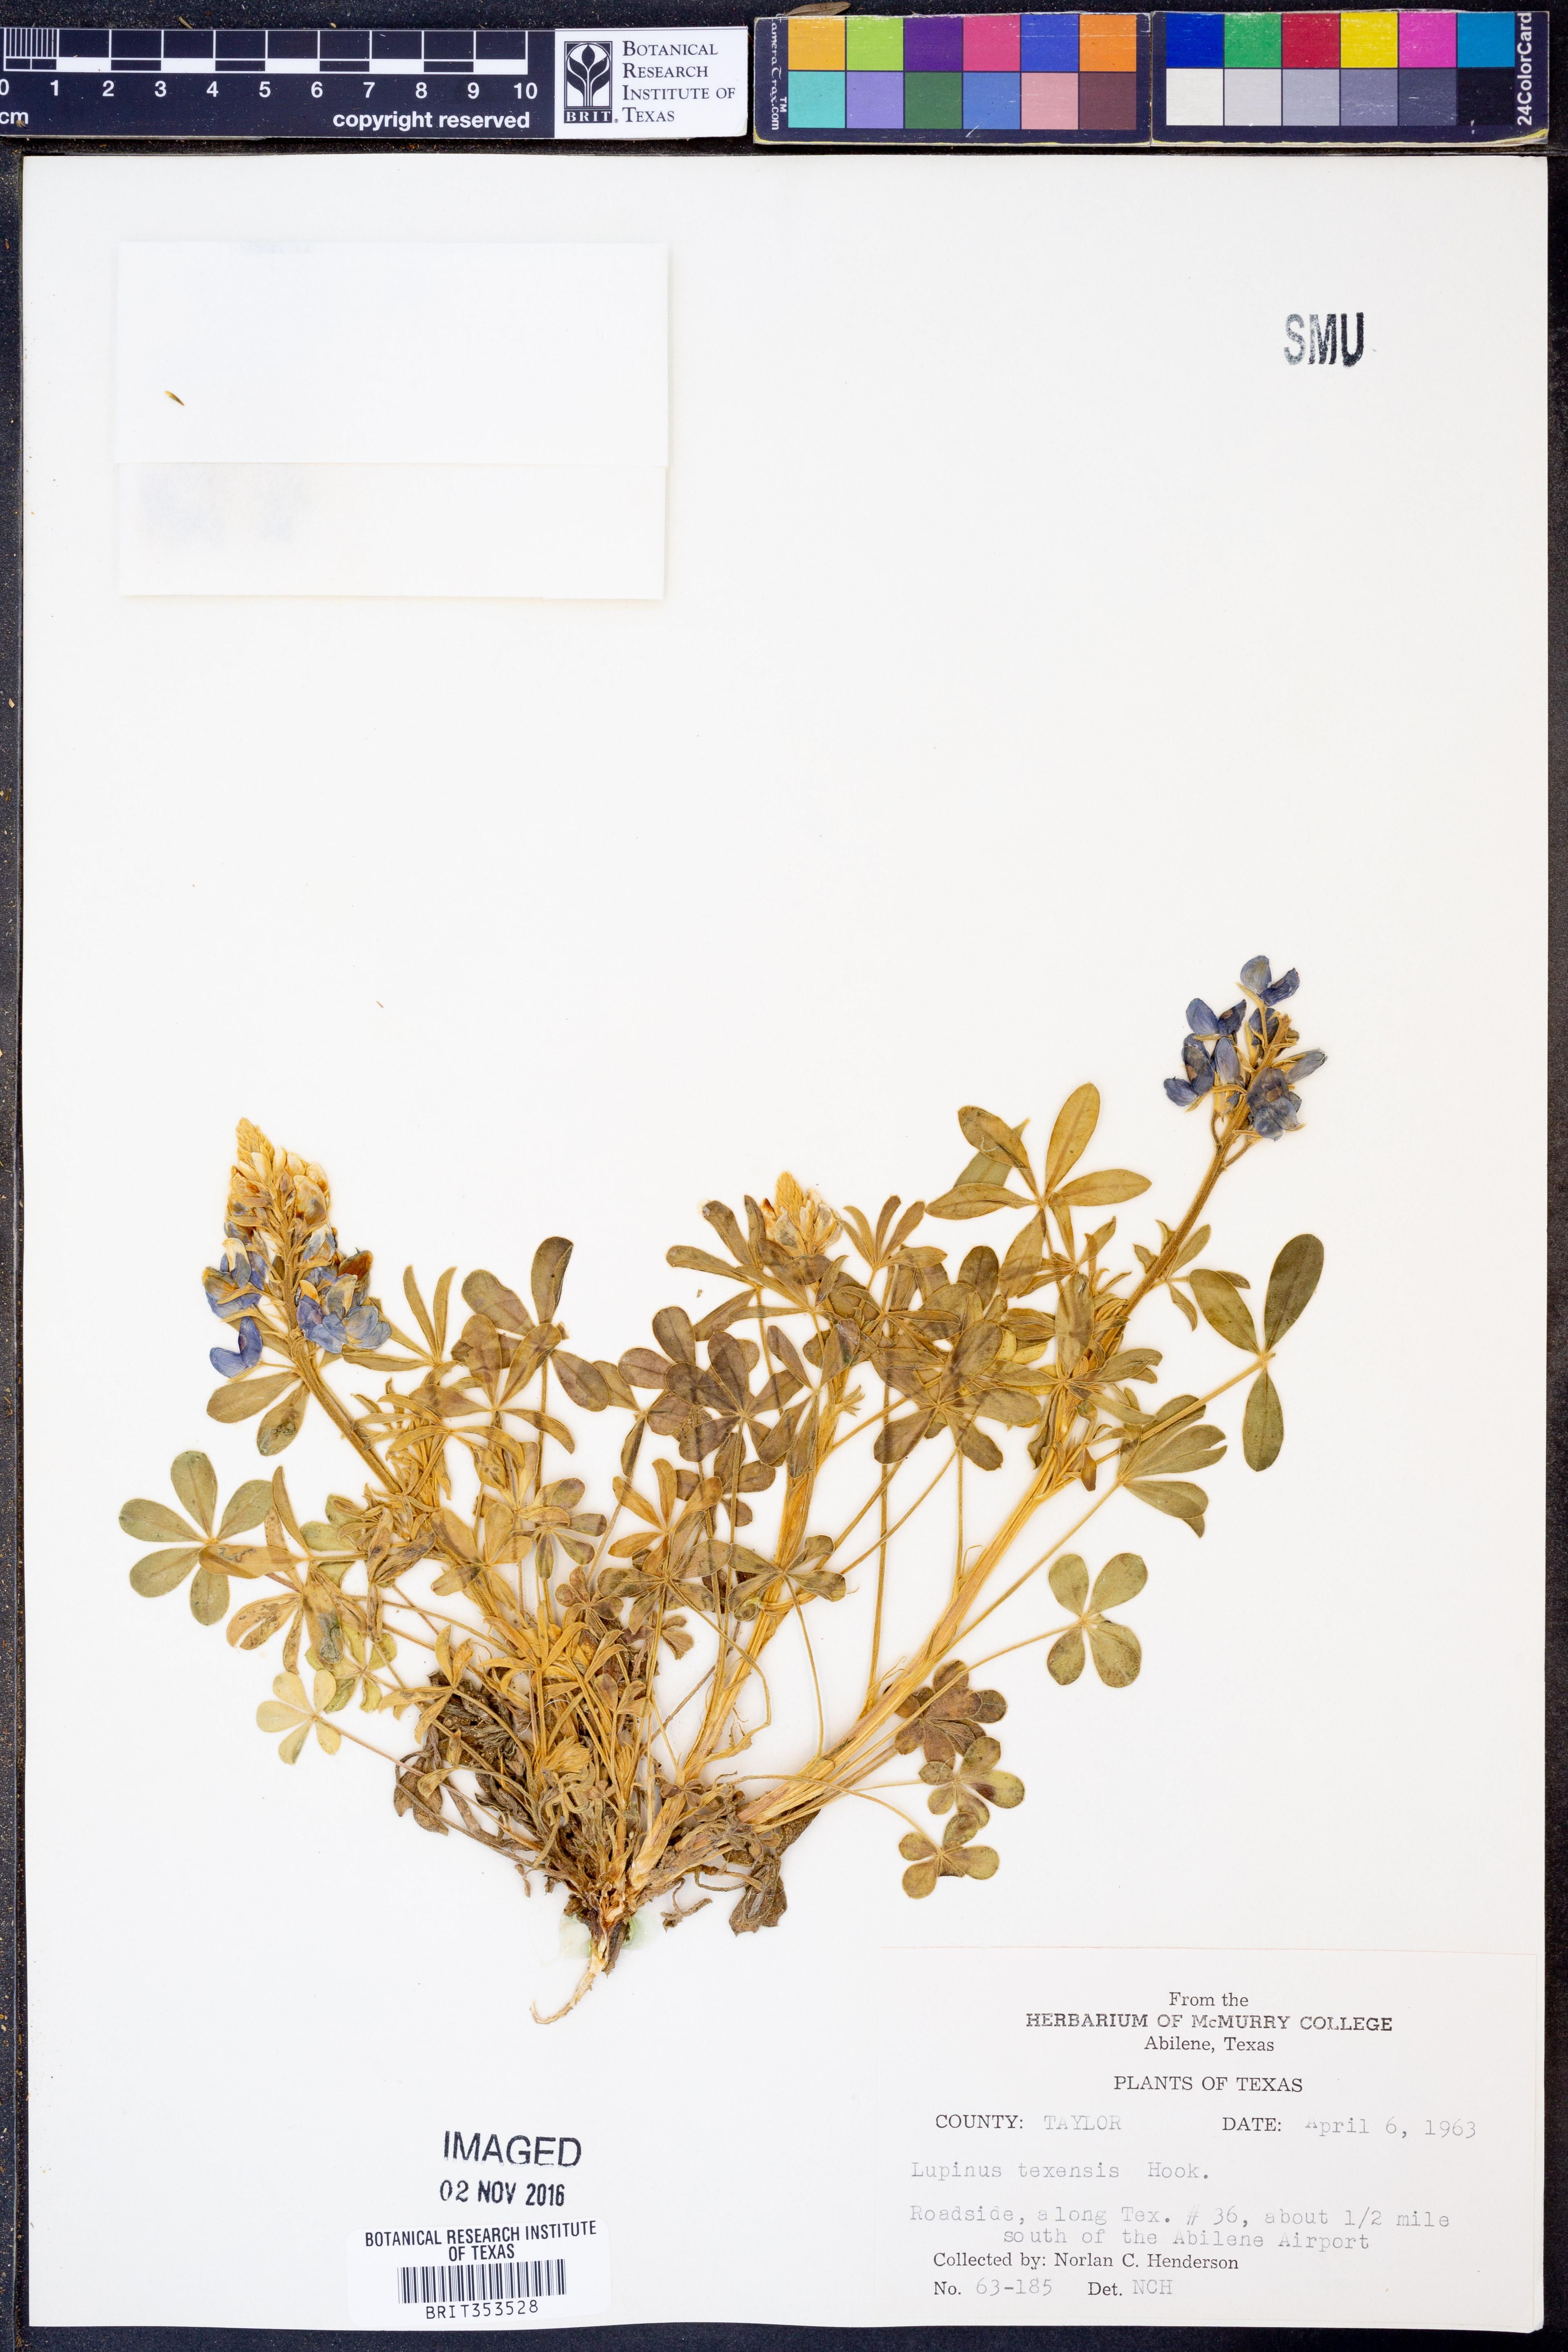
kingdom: Plantae
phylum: Tracheophyta
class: Magnoliopsida
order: Fabales
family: Fabaceae
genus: Lupinus
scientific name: Lupinus texensis
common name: Texas bluebonnet
